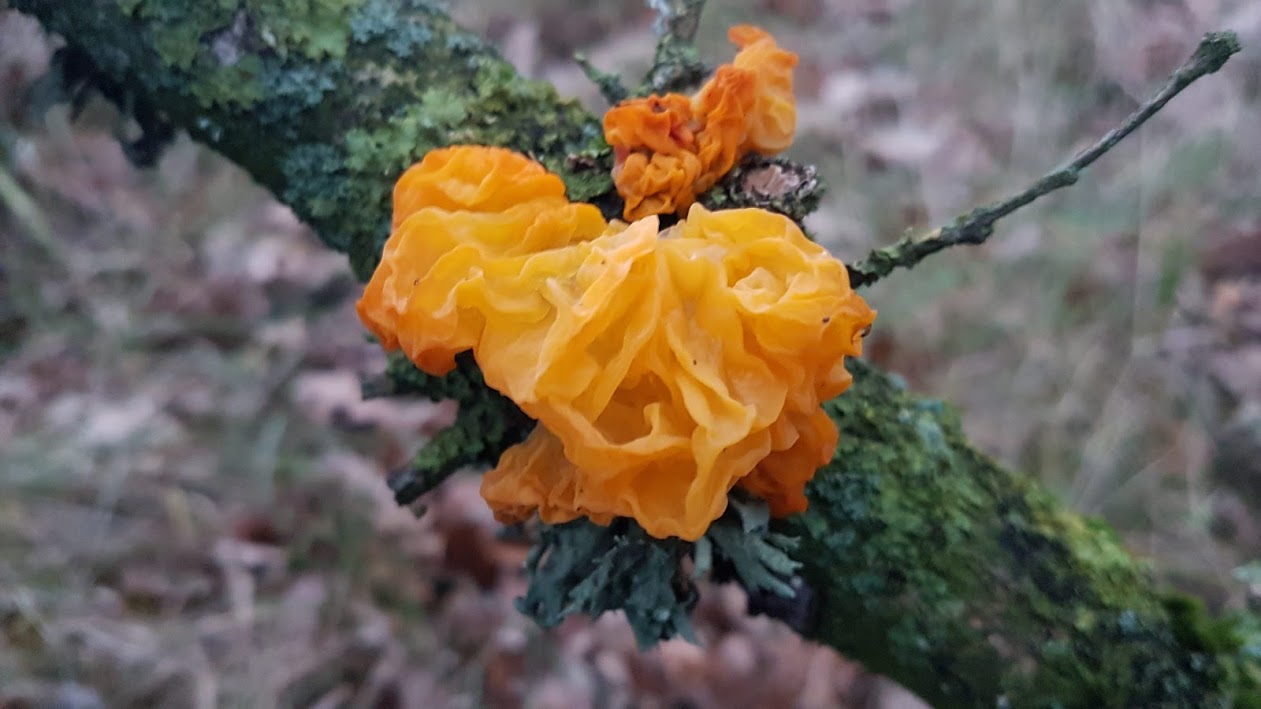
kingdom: Fungi
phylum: Basidiomycota
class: Tremellomycetes
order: Tremellales
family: Tremellaceae
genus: Tremella
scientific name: Tremella mesenterica
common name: gul bævresvamp
